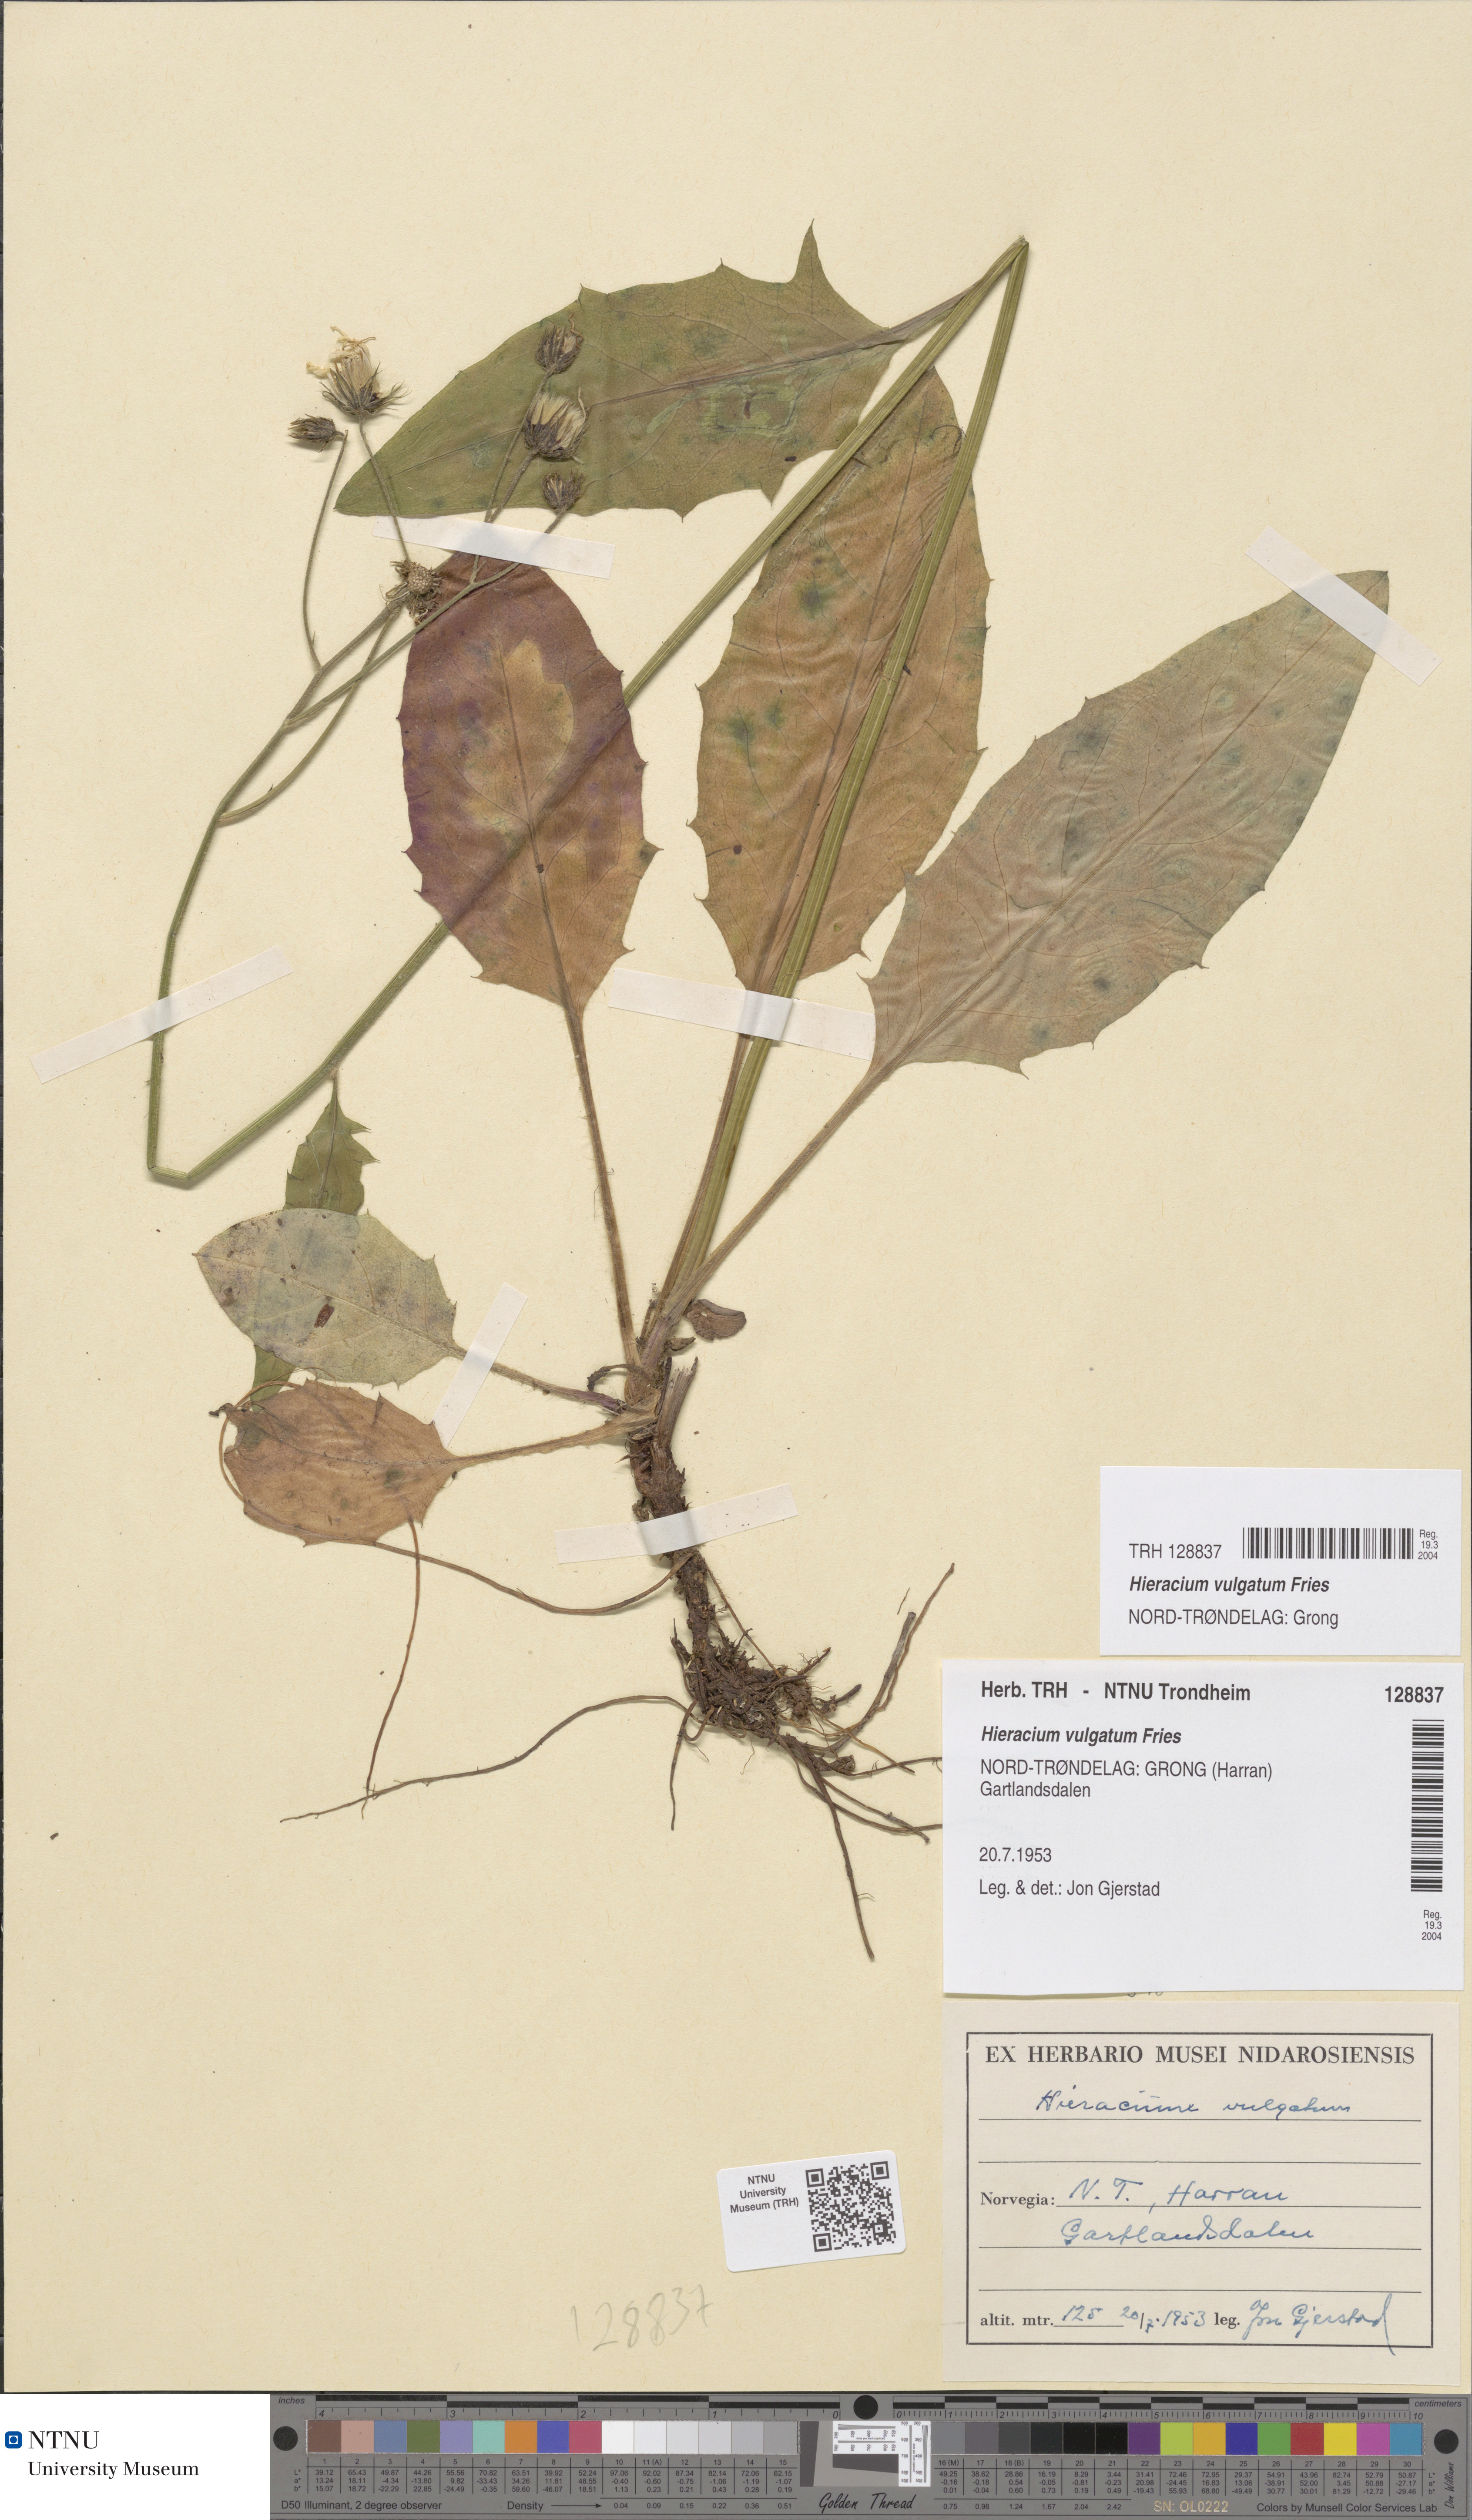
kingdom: Plantae
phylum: Tracheophyta
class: Magnoliopsida
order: Asterales
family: Asteraceae
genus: Hieracium
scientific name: Hieracium lachenalii
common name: Common hawkweed
